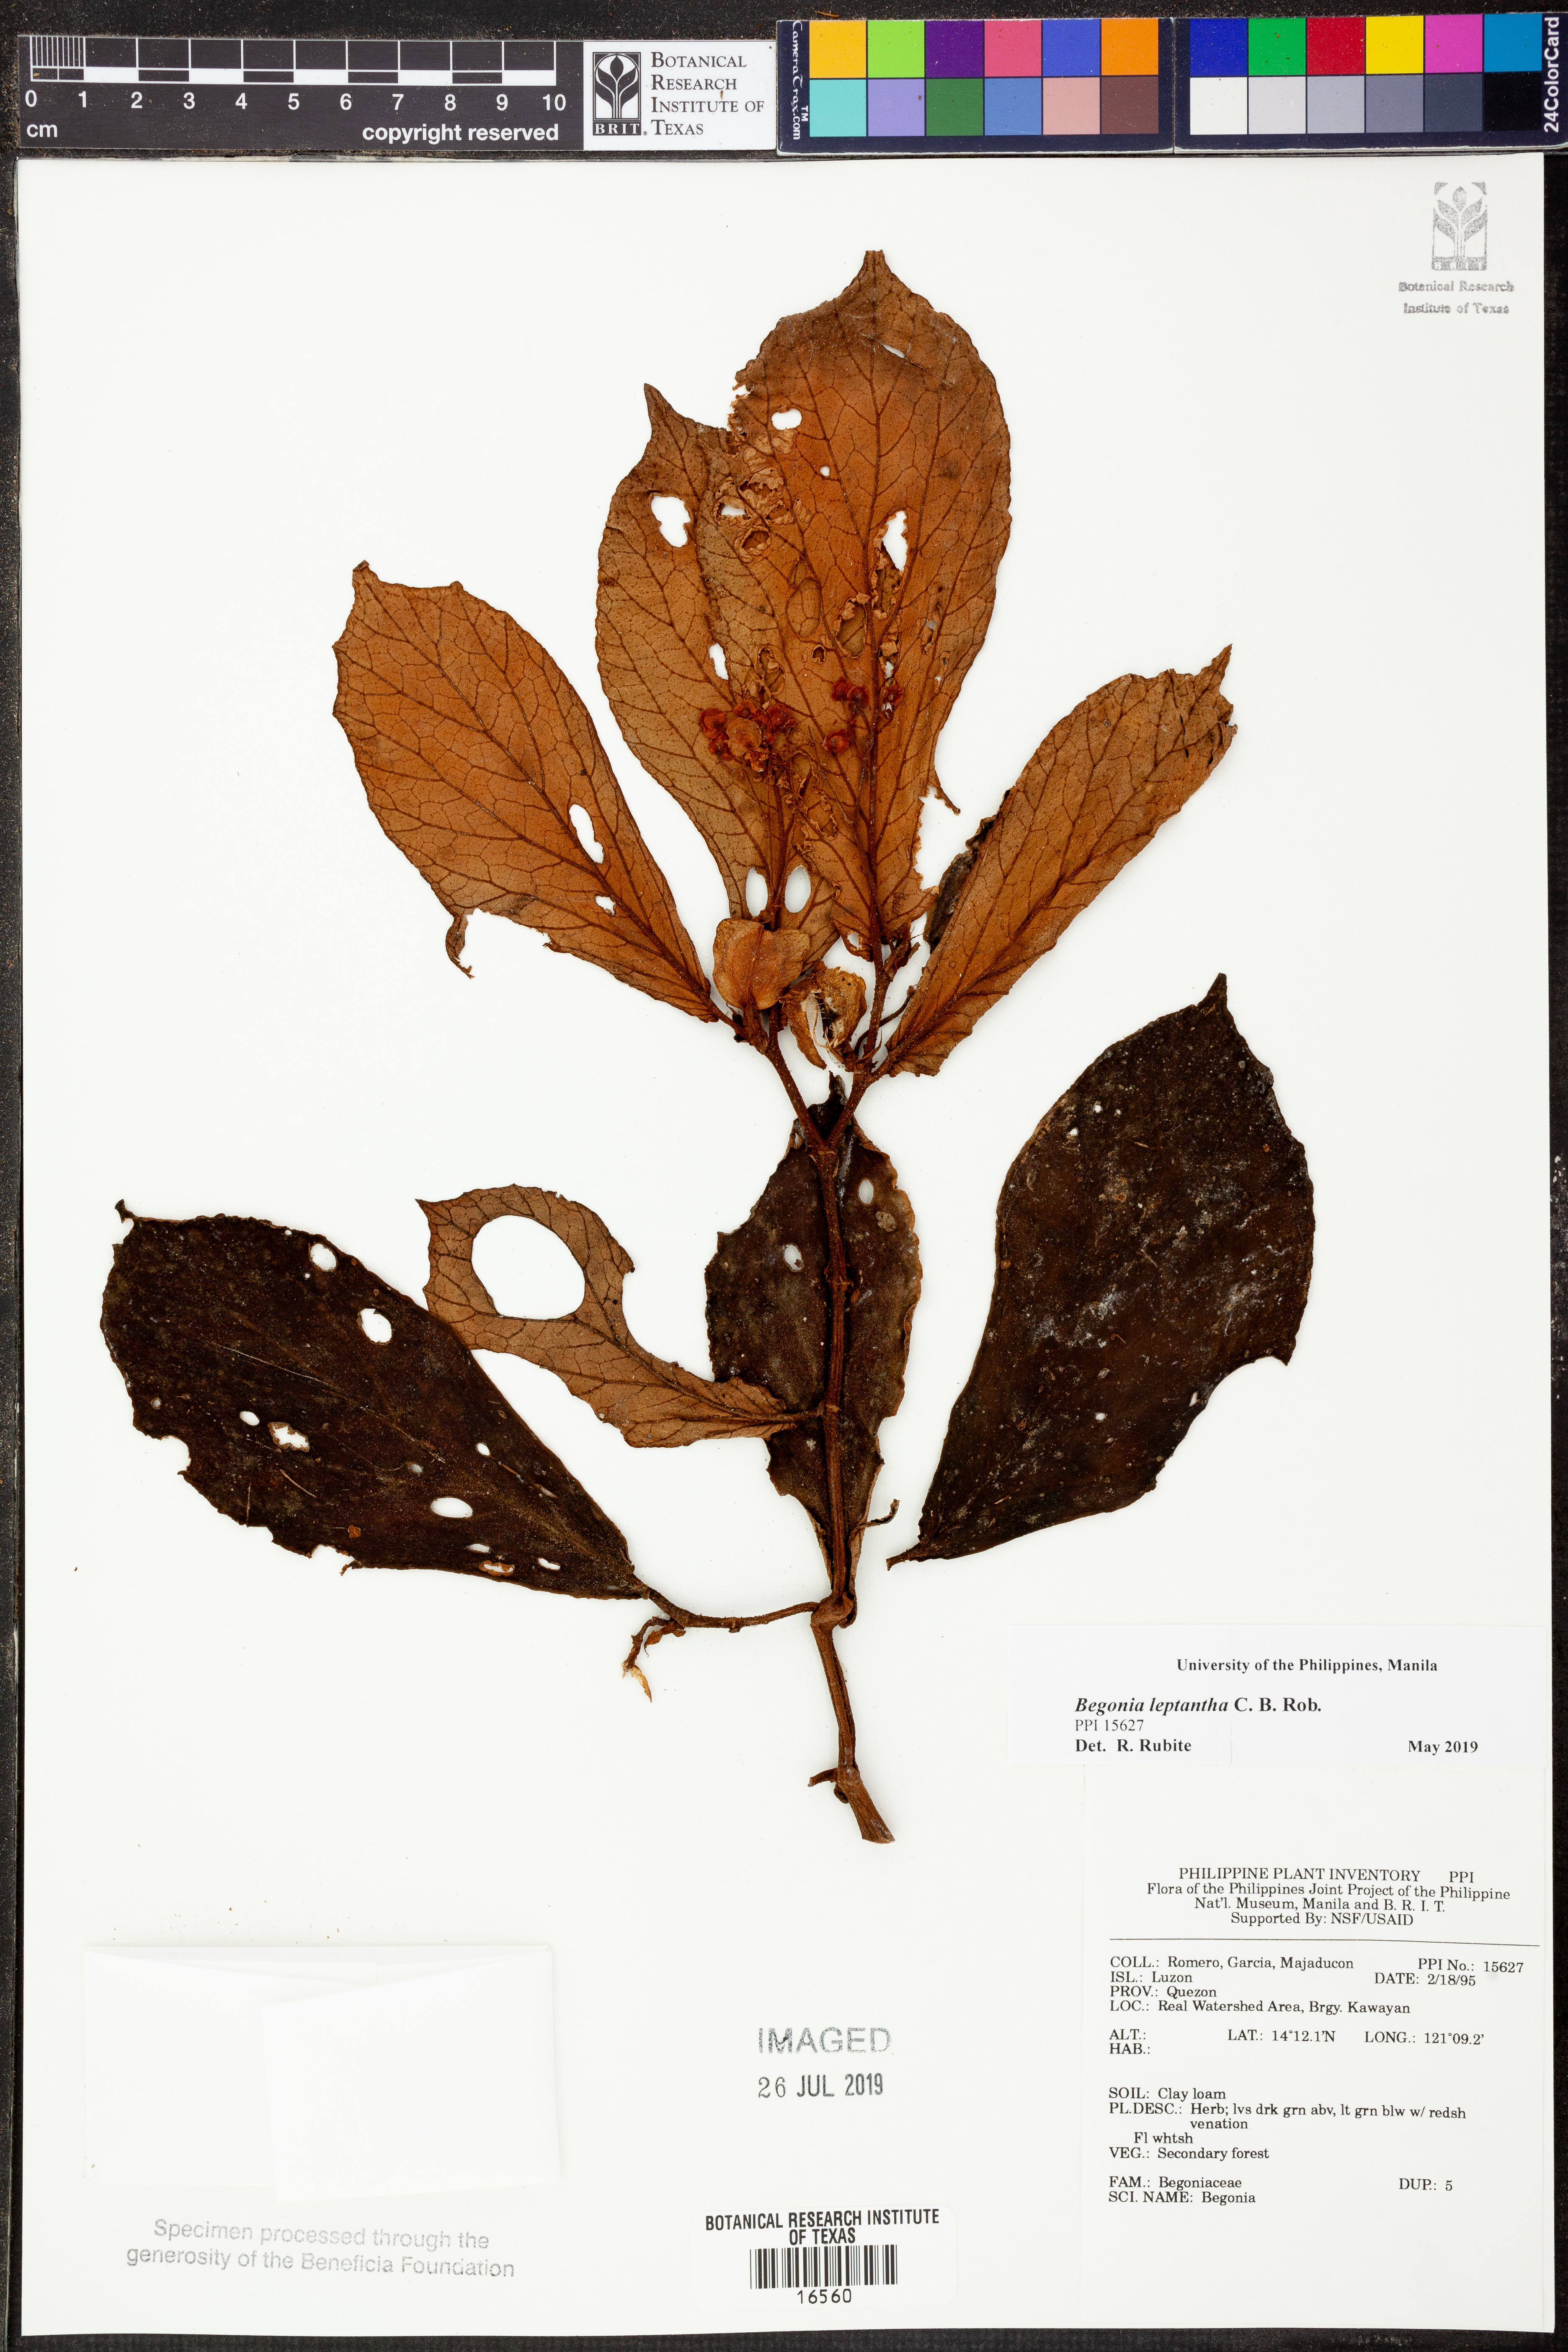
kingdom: Plantae
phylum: Tracheophyta
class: Magnoliopsida
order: Cucurbitales
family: Begoniaceae
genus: Begonia
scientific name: Begonia leptantha
